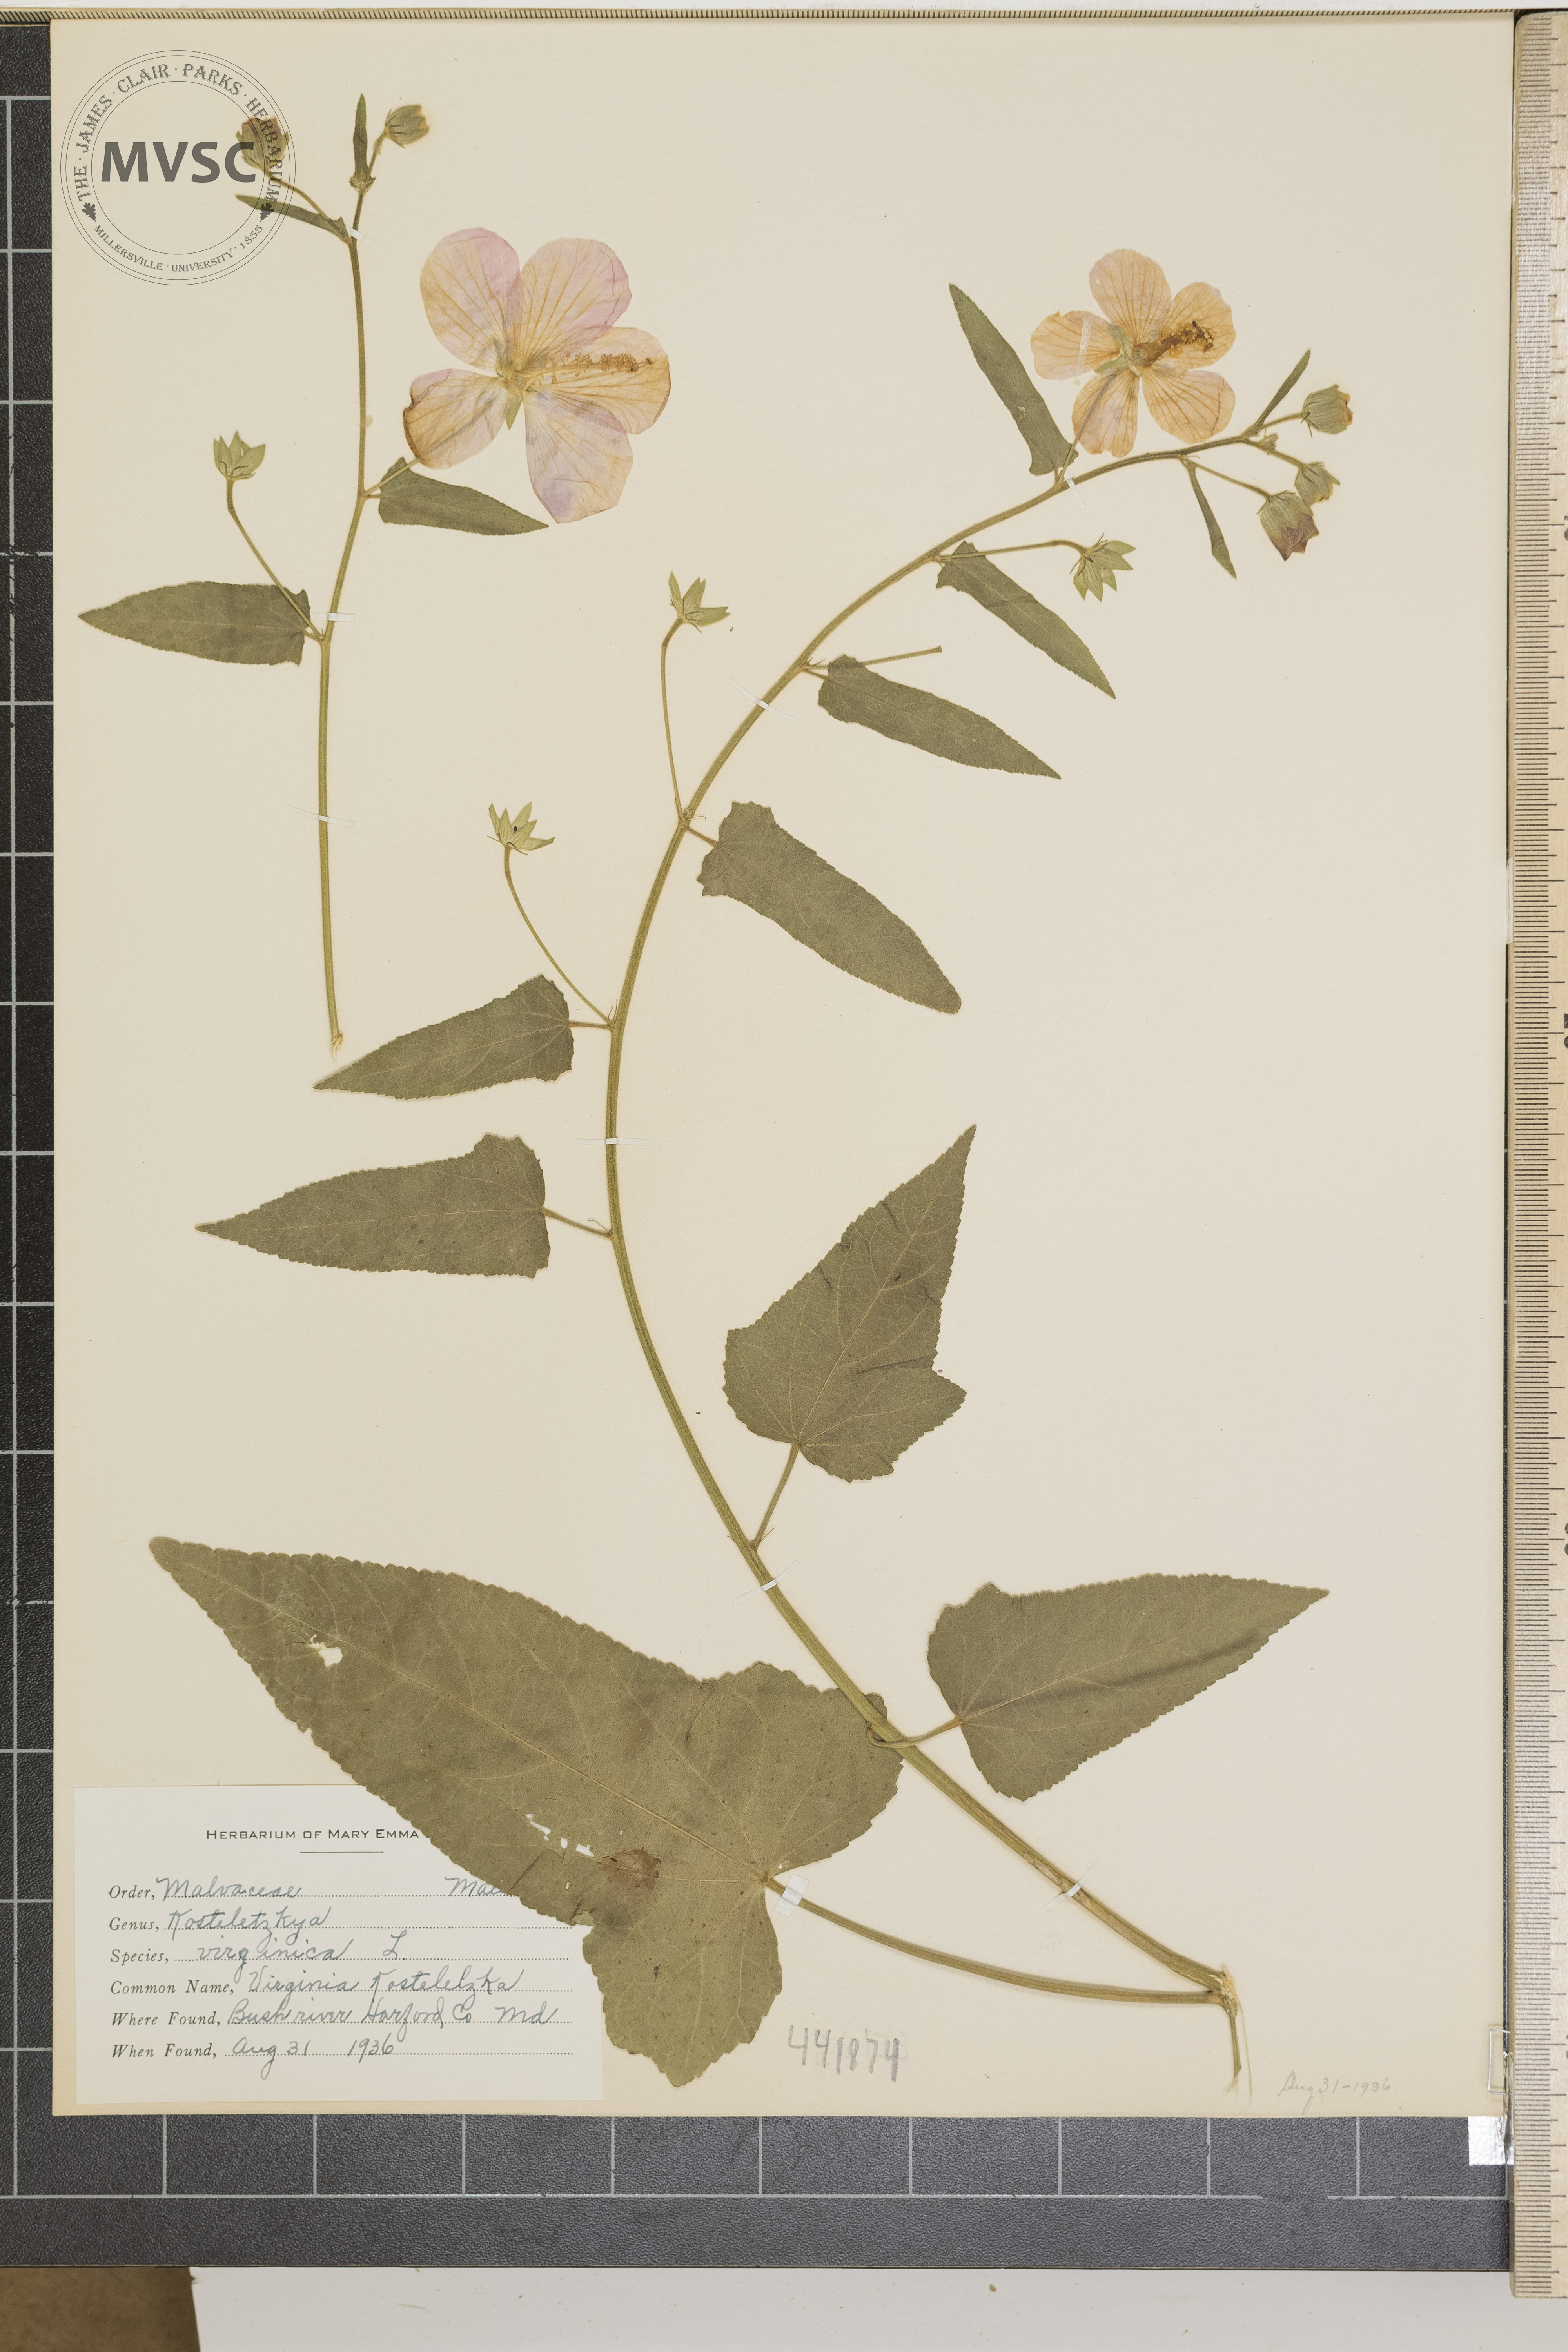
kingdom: Plantae
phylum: Tracheophyta
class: Magnoliopsida
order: Malvales
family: Malvaceae
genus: Kosteletzkya
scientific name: Kosteletzkya pentacarpos
